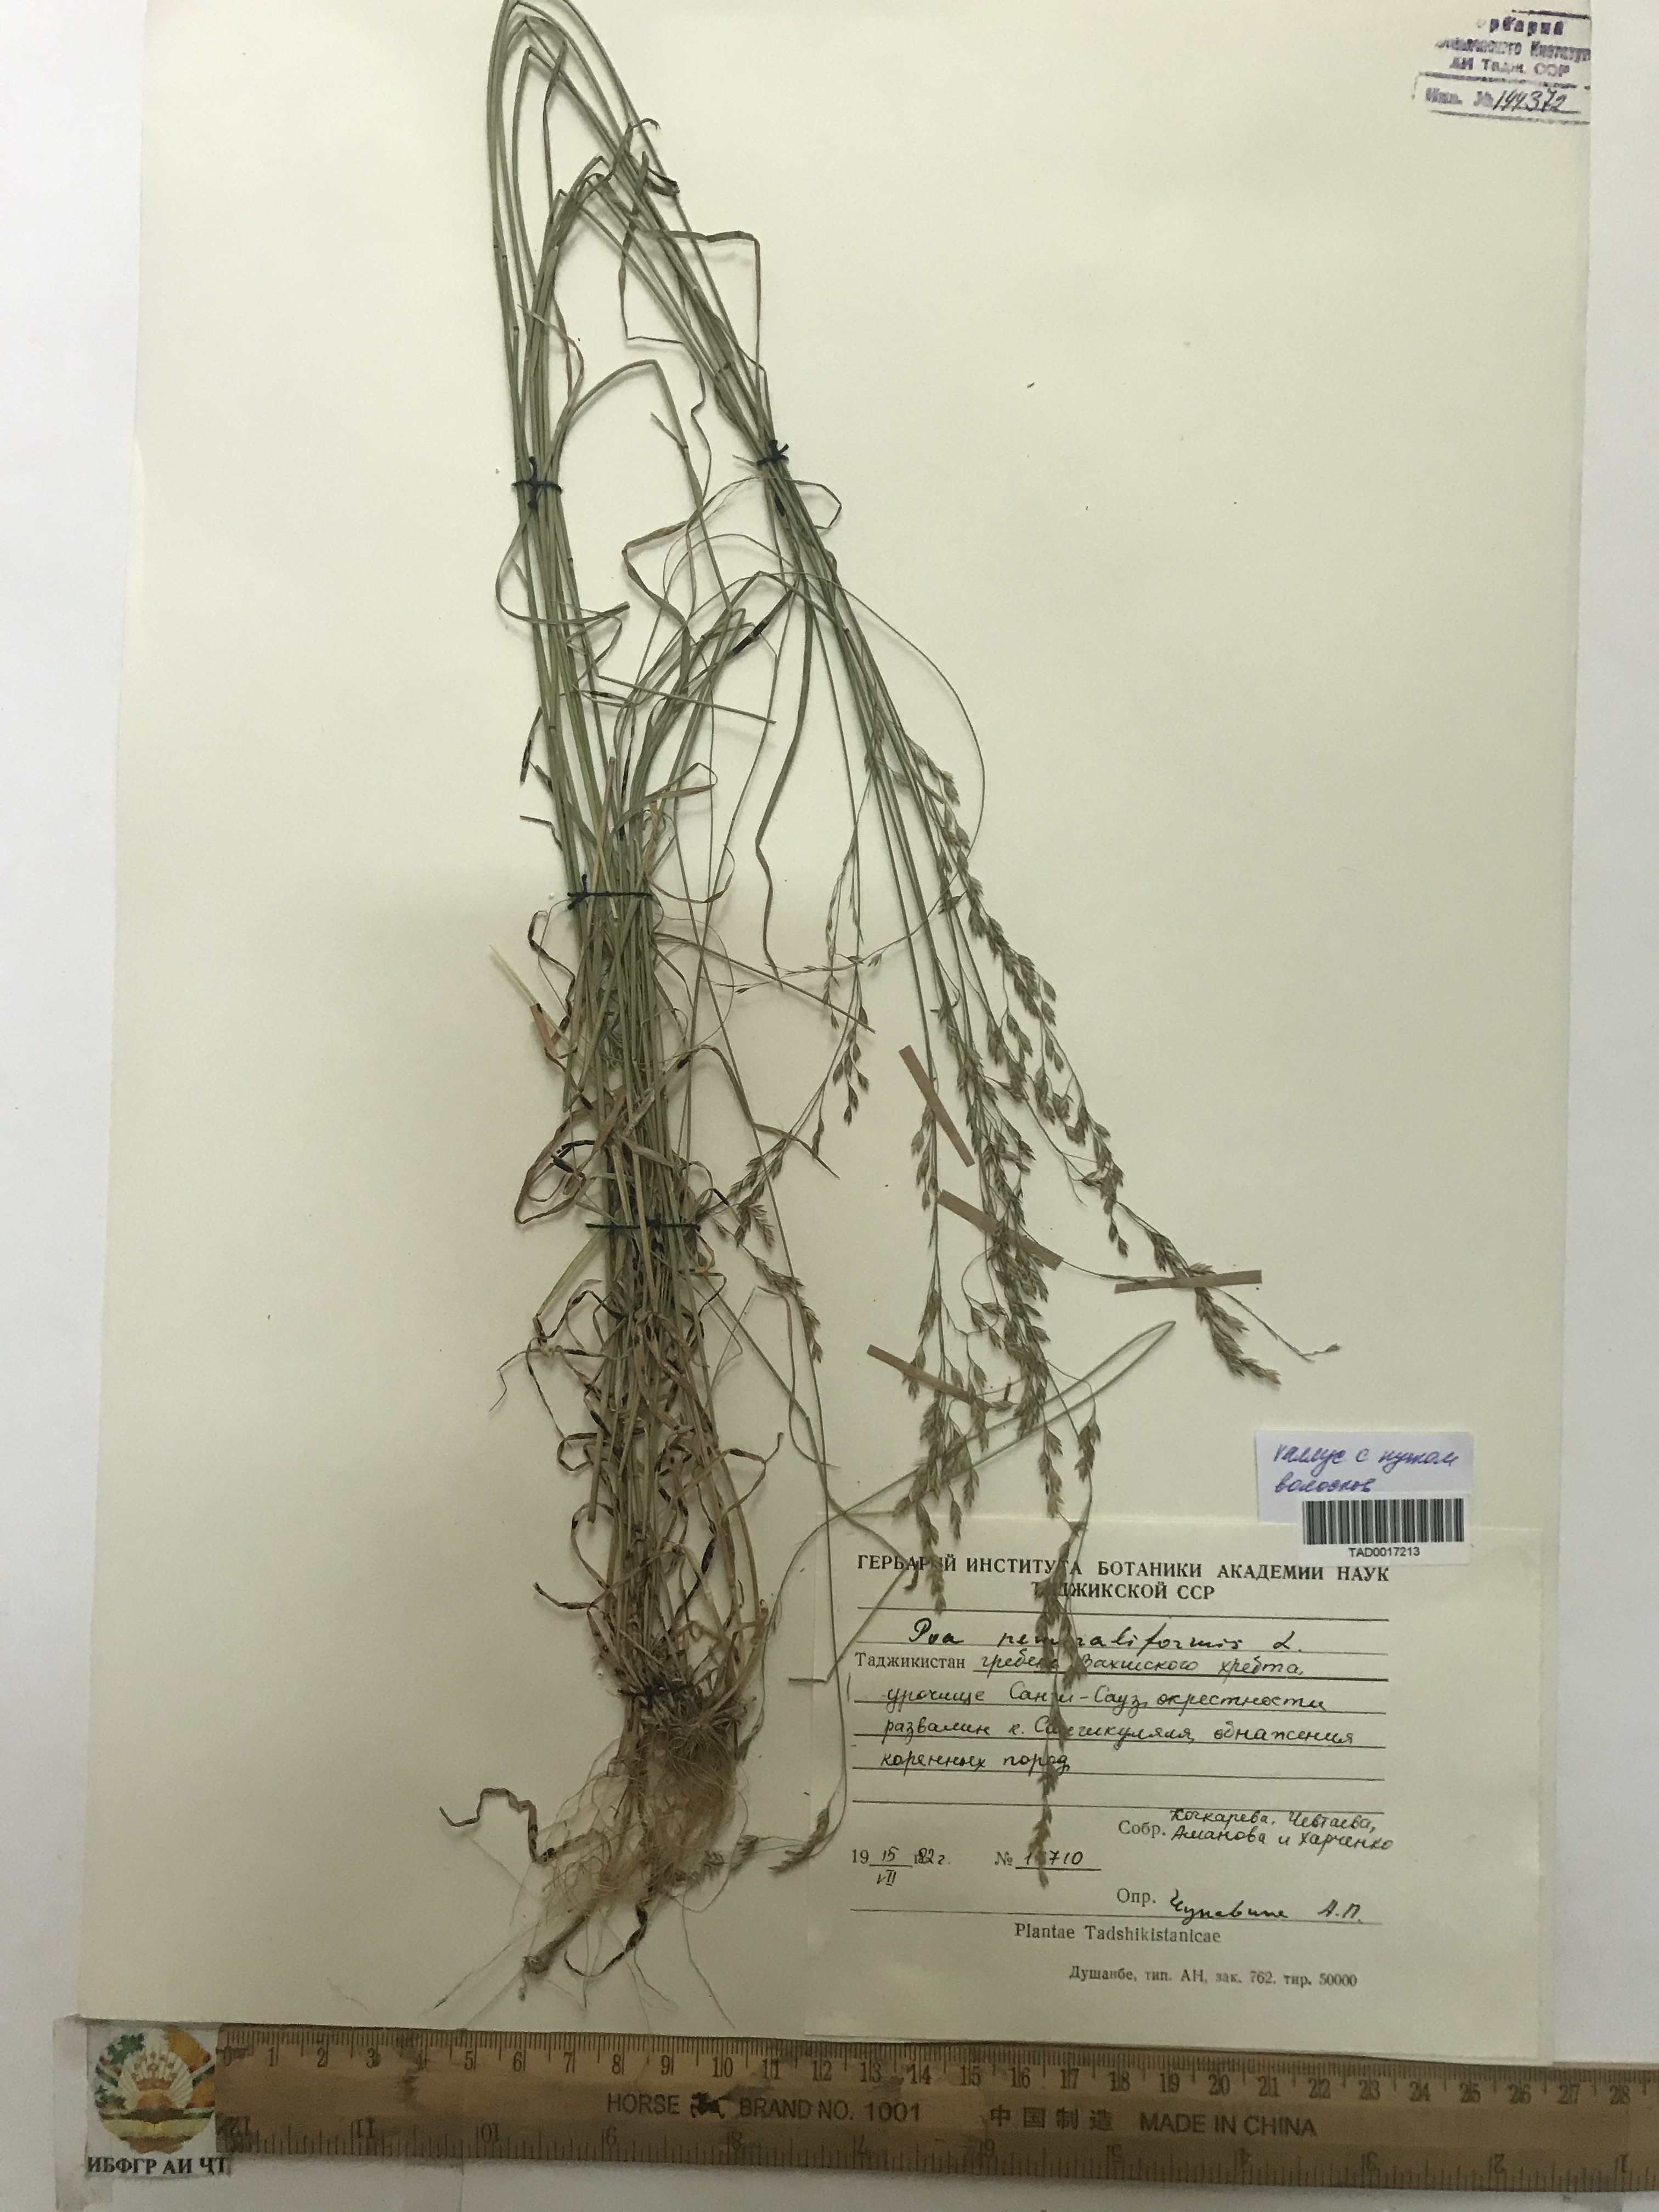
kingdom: Plantae
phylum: Tracheophyta
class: Liliopsida
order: Poales
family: Poaceae
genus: Poa
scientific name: Poa urssulensis
